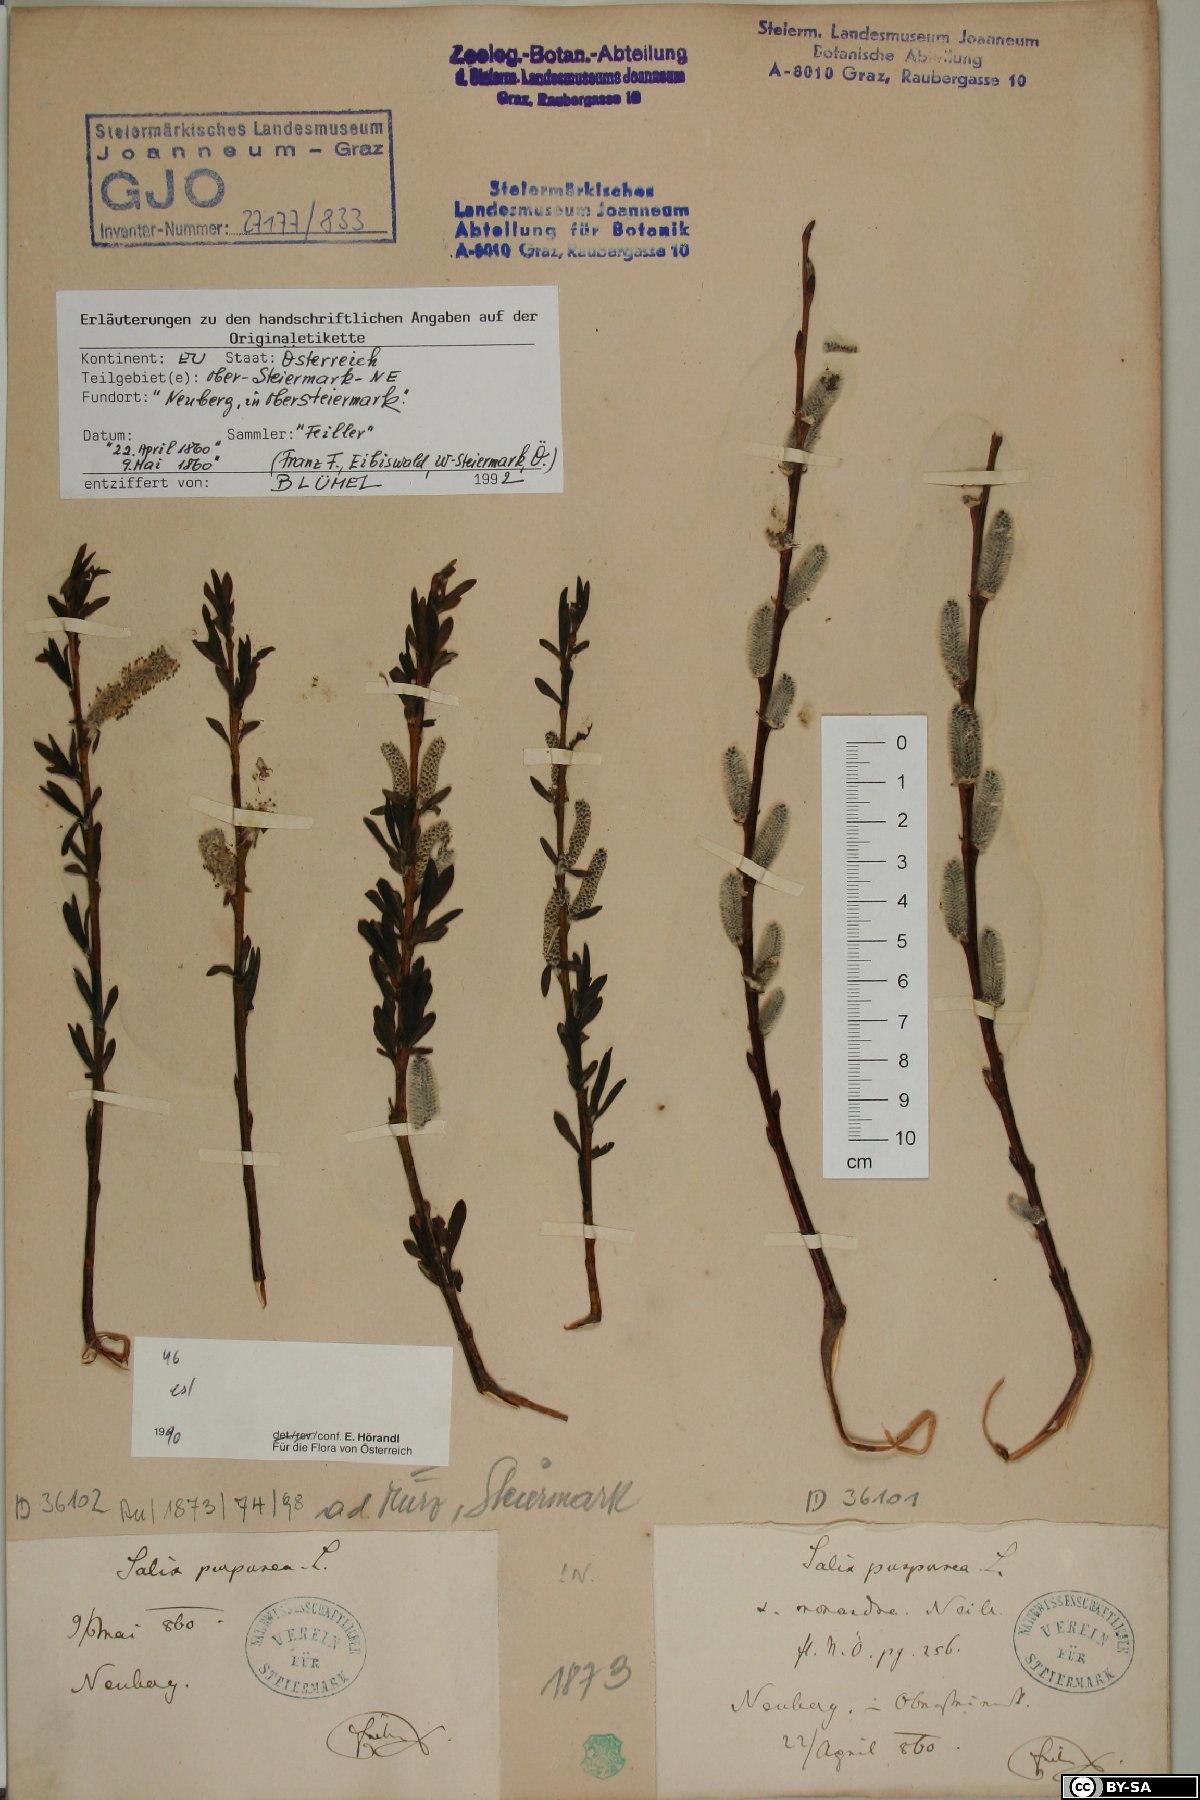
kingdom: Plantae
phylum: Tracheophyta
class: Magnoliopsida
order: Malpighiales
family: Salicaceae
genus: Salix
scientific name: Salix purpurea
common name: Purple willow
